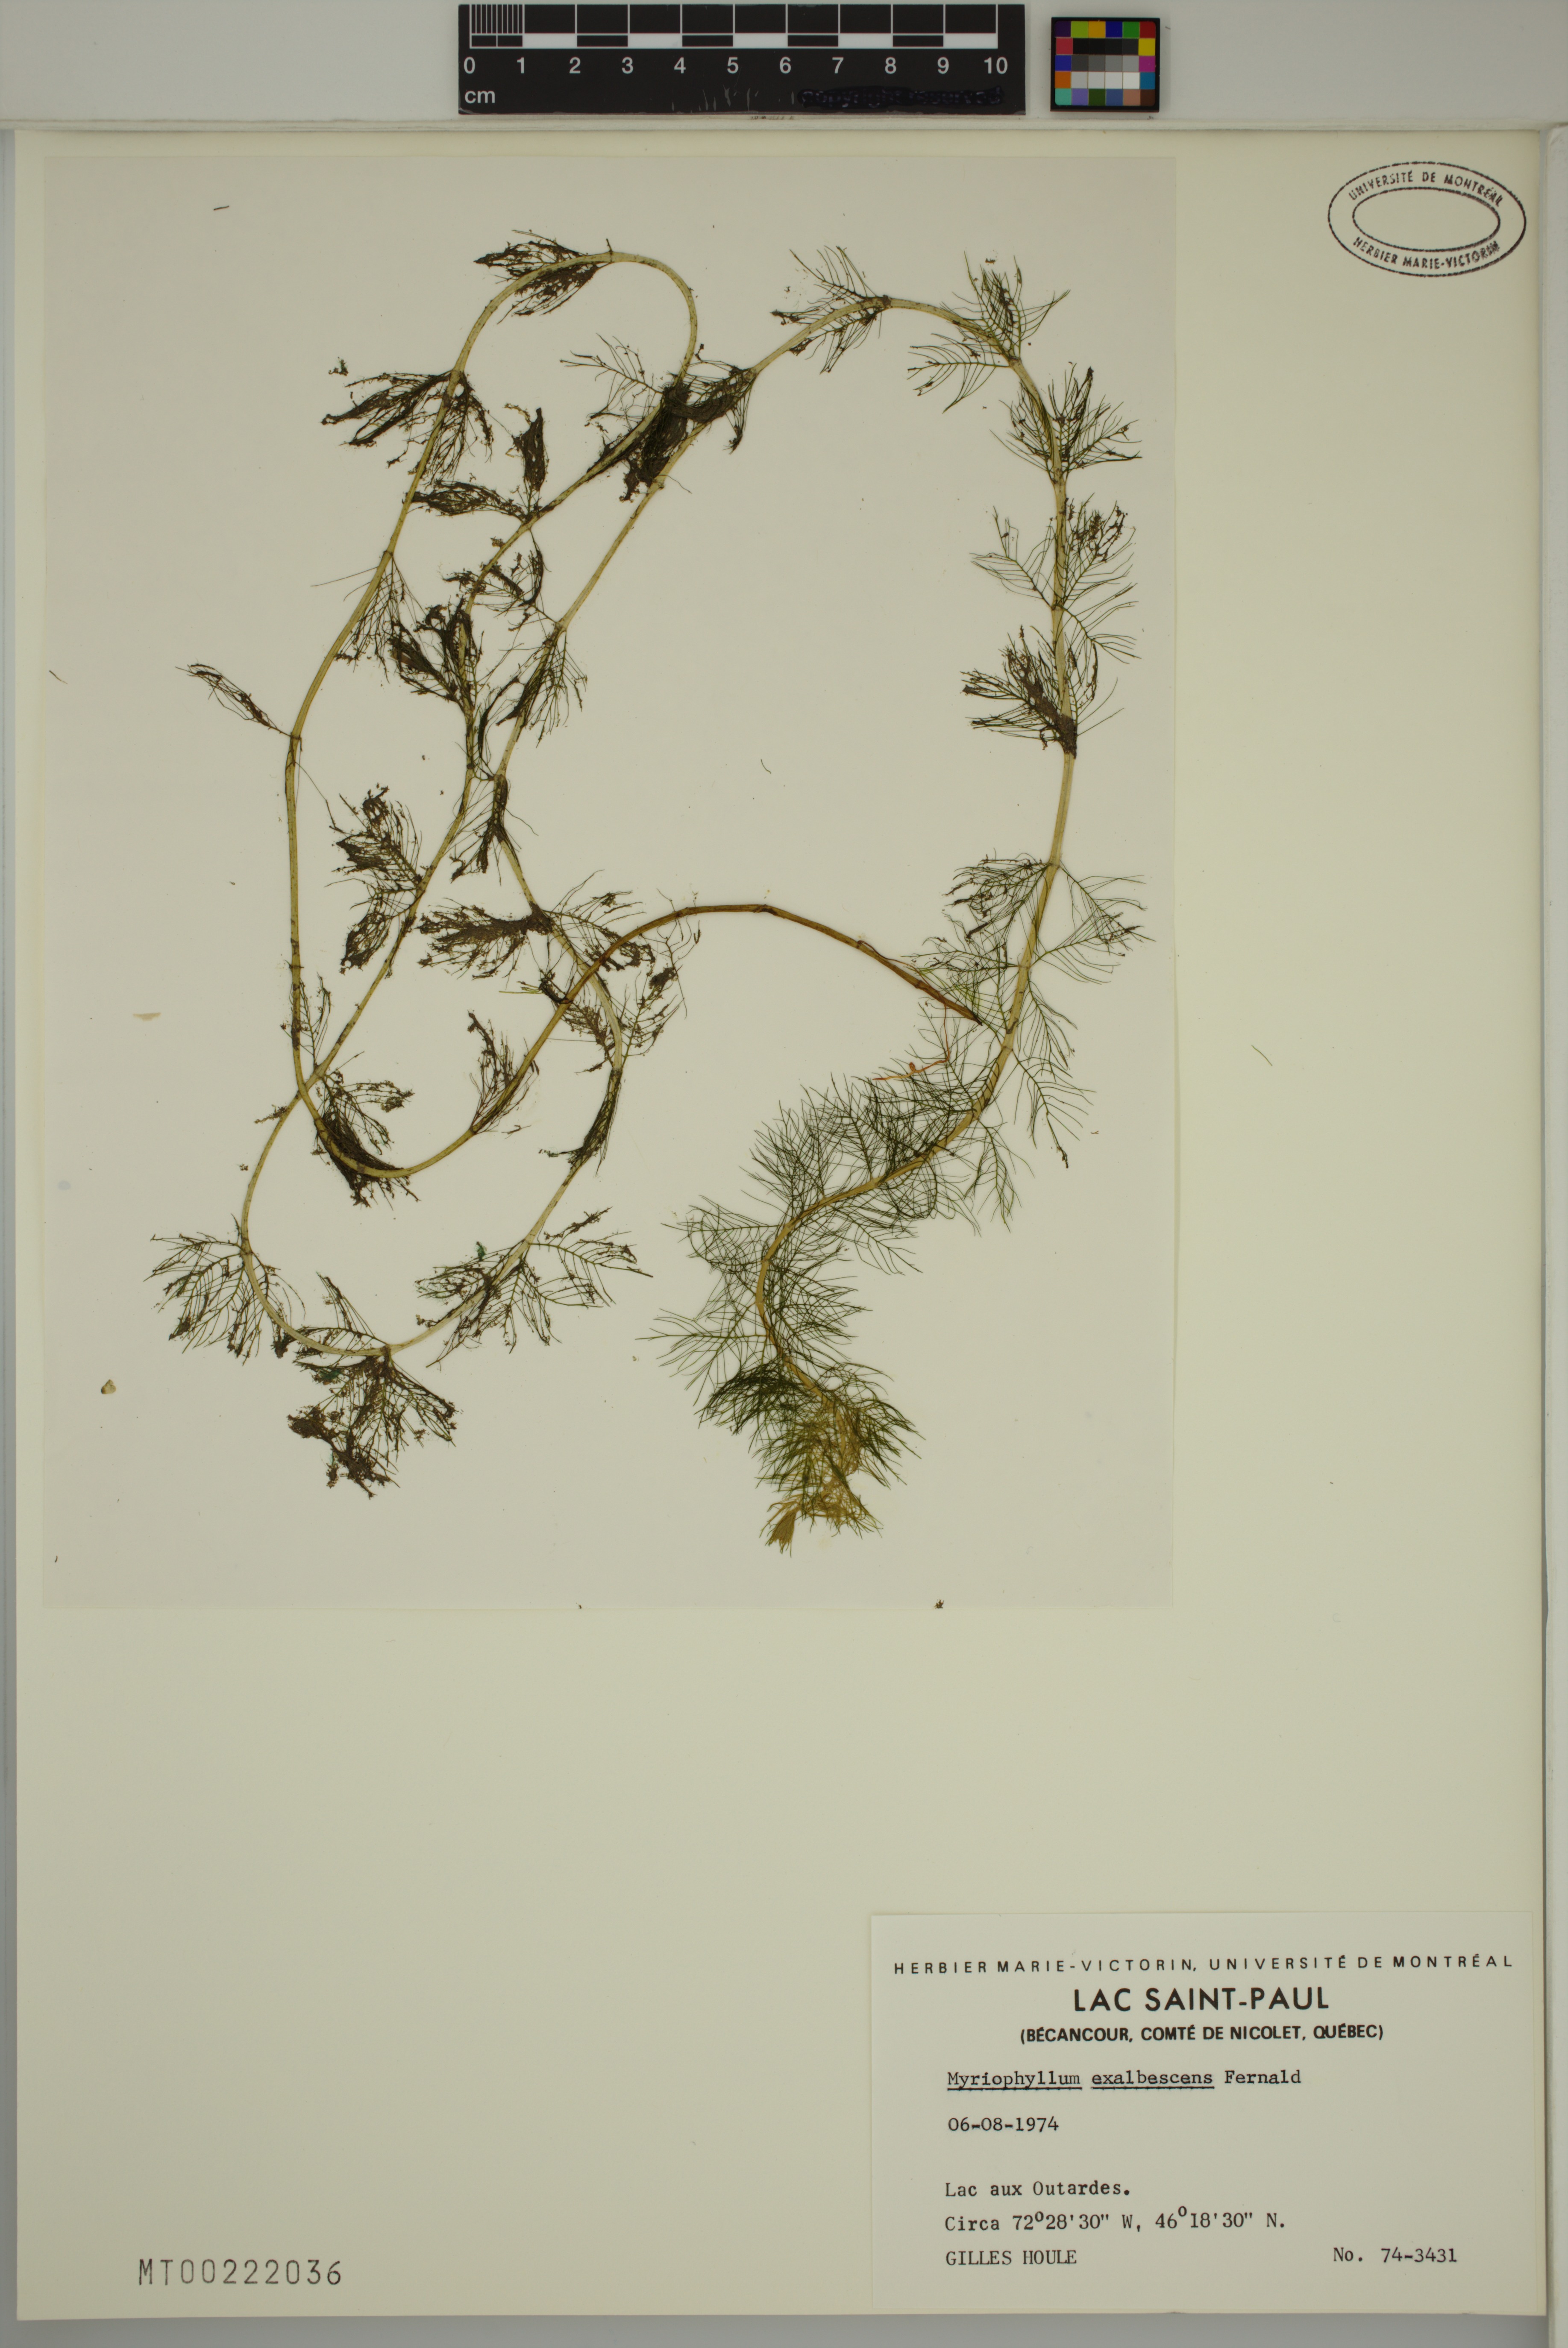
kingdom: Plantae
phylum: Tracheophyta
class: Magnoliopsida
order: Saxifragales
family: Haloragaceae
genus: Myriophyllum
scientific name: Myriophyllum sibiricum
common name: Siberian water-milfoil
